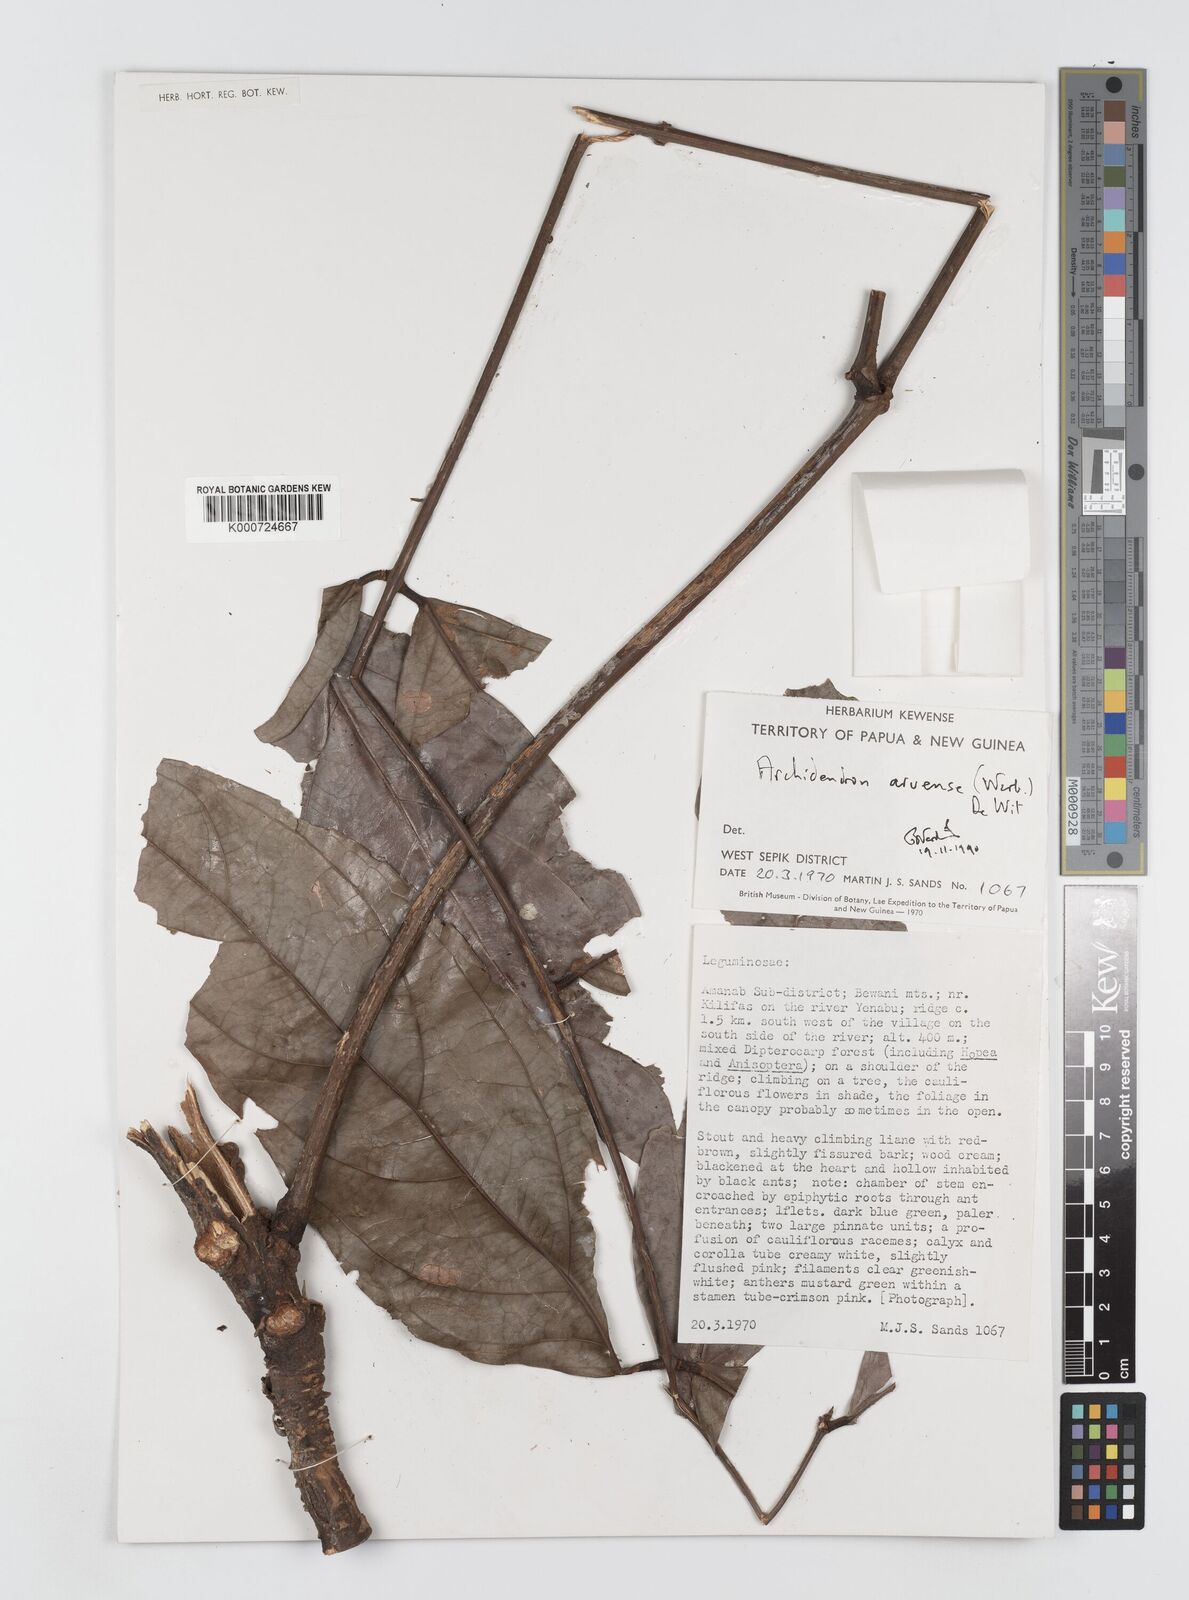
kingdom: Plantae
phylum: Tracheophyta
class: Magnoliopsida
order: Fabales
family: Fabaceae
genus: Archidendron
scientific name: Archidendron aruense
